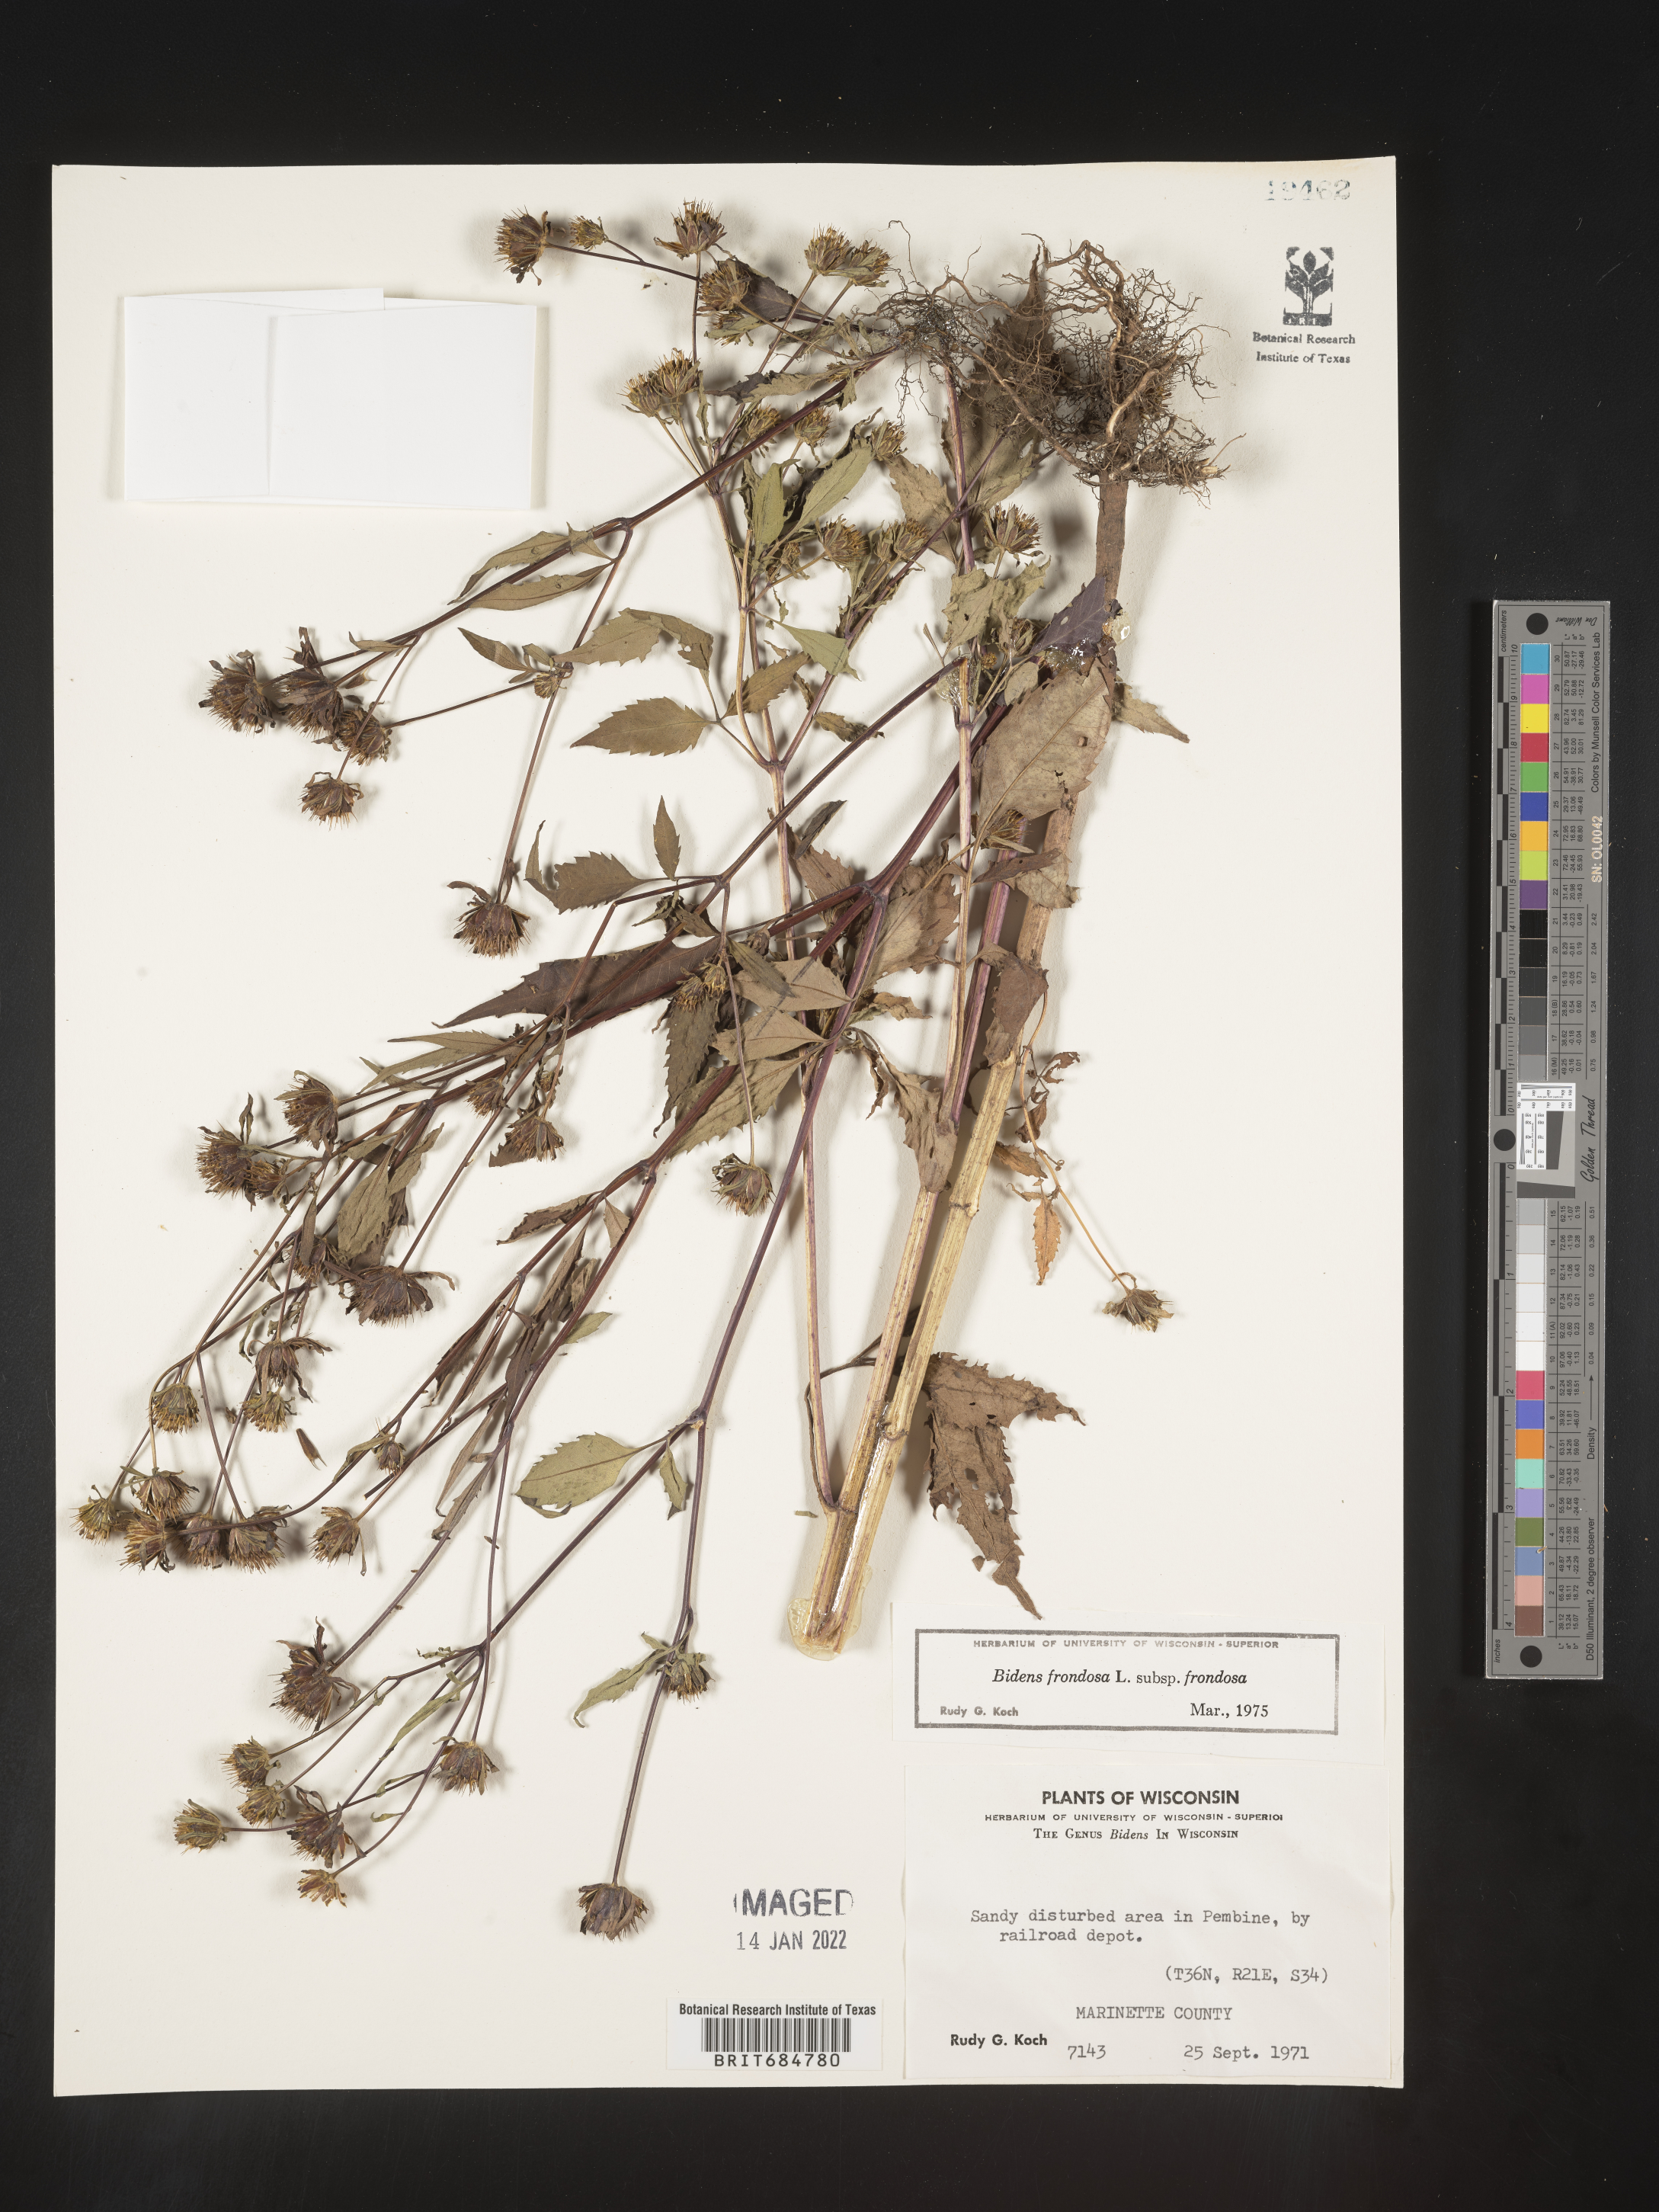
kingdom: Plantae
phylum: Tracheophyta
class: Magnoliopsida
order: Asterales
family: Asteraceae
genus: Bidens
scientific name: Bidens frondosa
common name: Beggarticks
